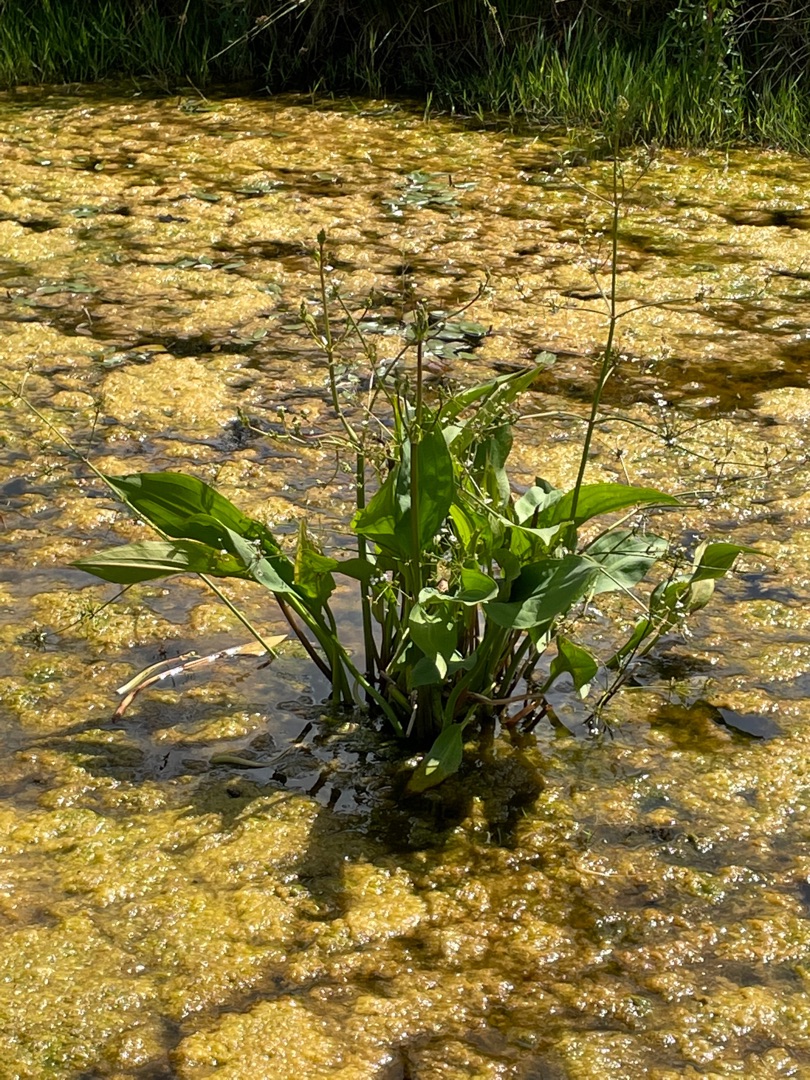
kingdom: Plantae
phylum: Tracheophyta
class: Liliopsida
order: Alismatales
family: Alismataceae
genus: Alisma
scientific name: Alisma plantago-aquatica
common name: Vejbred-skeblad
